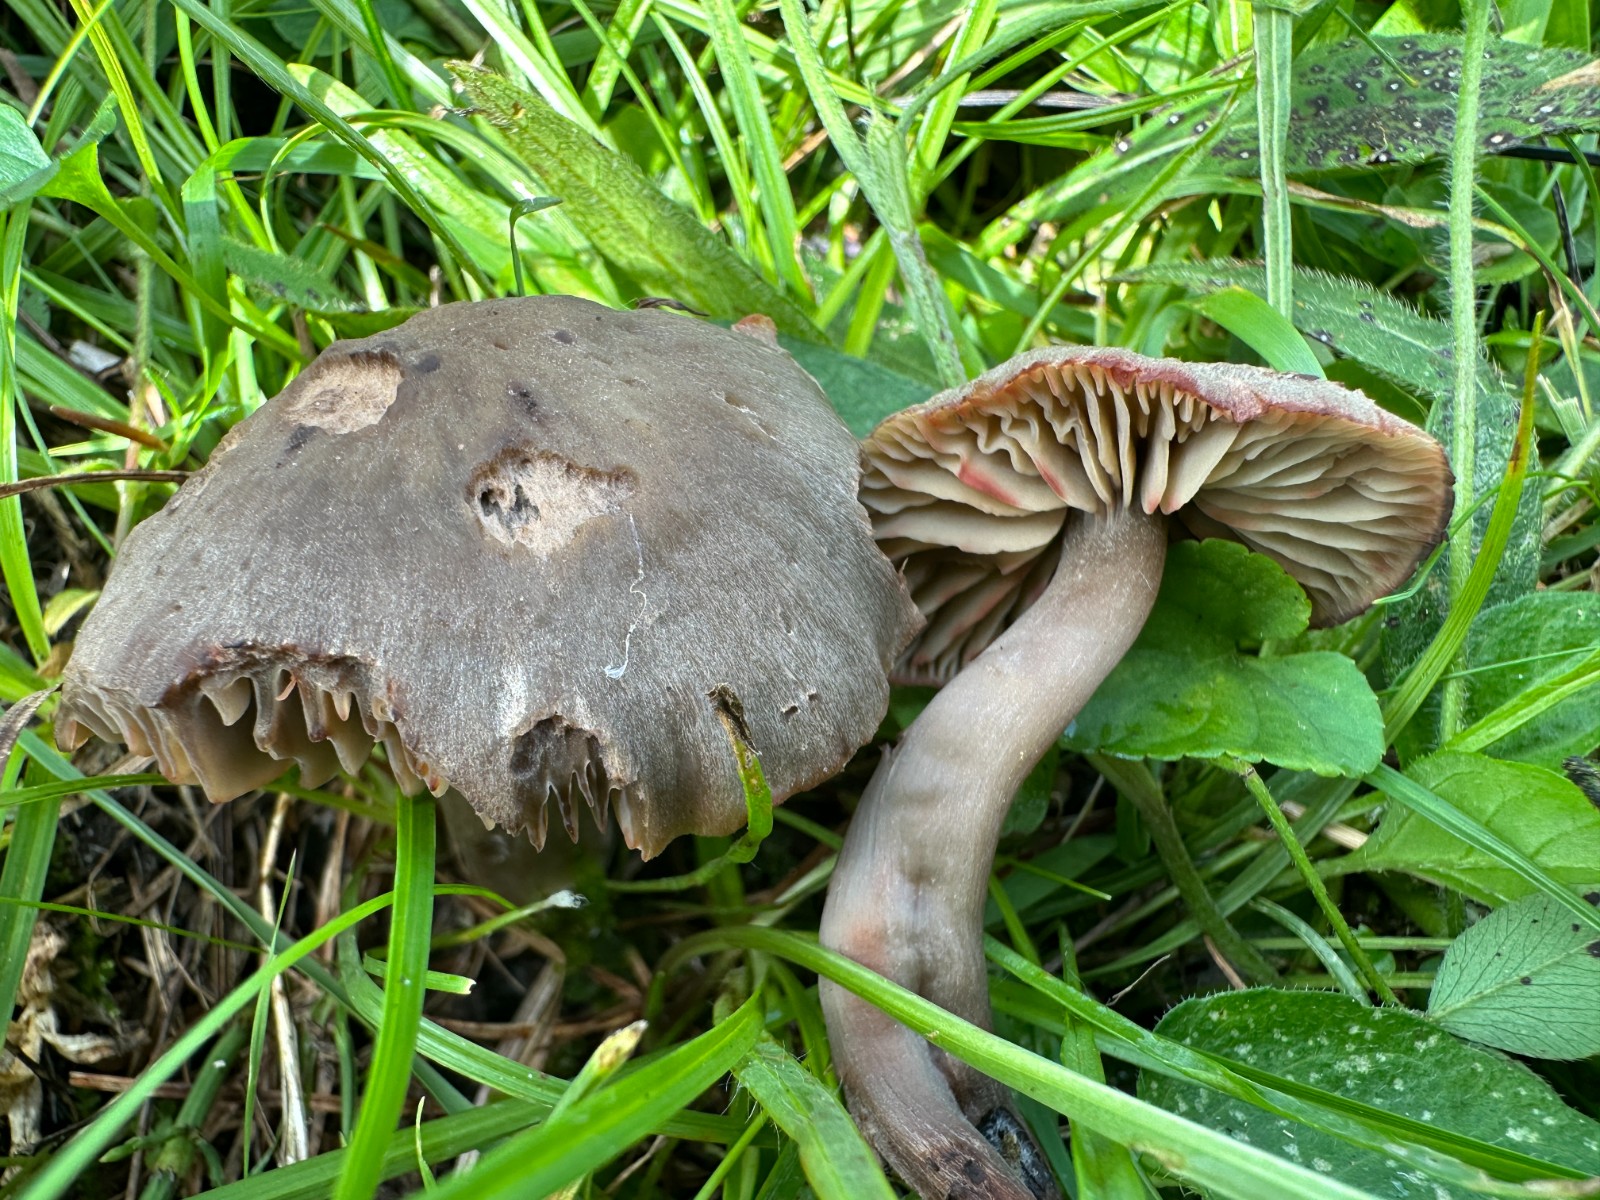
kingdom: Fungi
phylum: Basidiomycota
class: Agaricomycetes
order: Agaricales
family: Hygrophoraceae
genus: Neohygrocybe
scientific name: Neohygrocybe ovina
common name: rødmende vokshat
